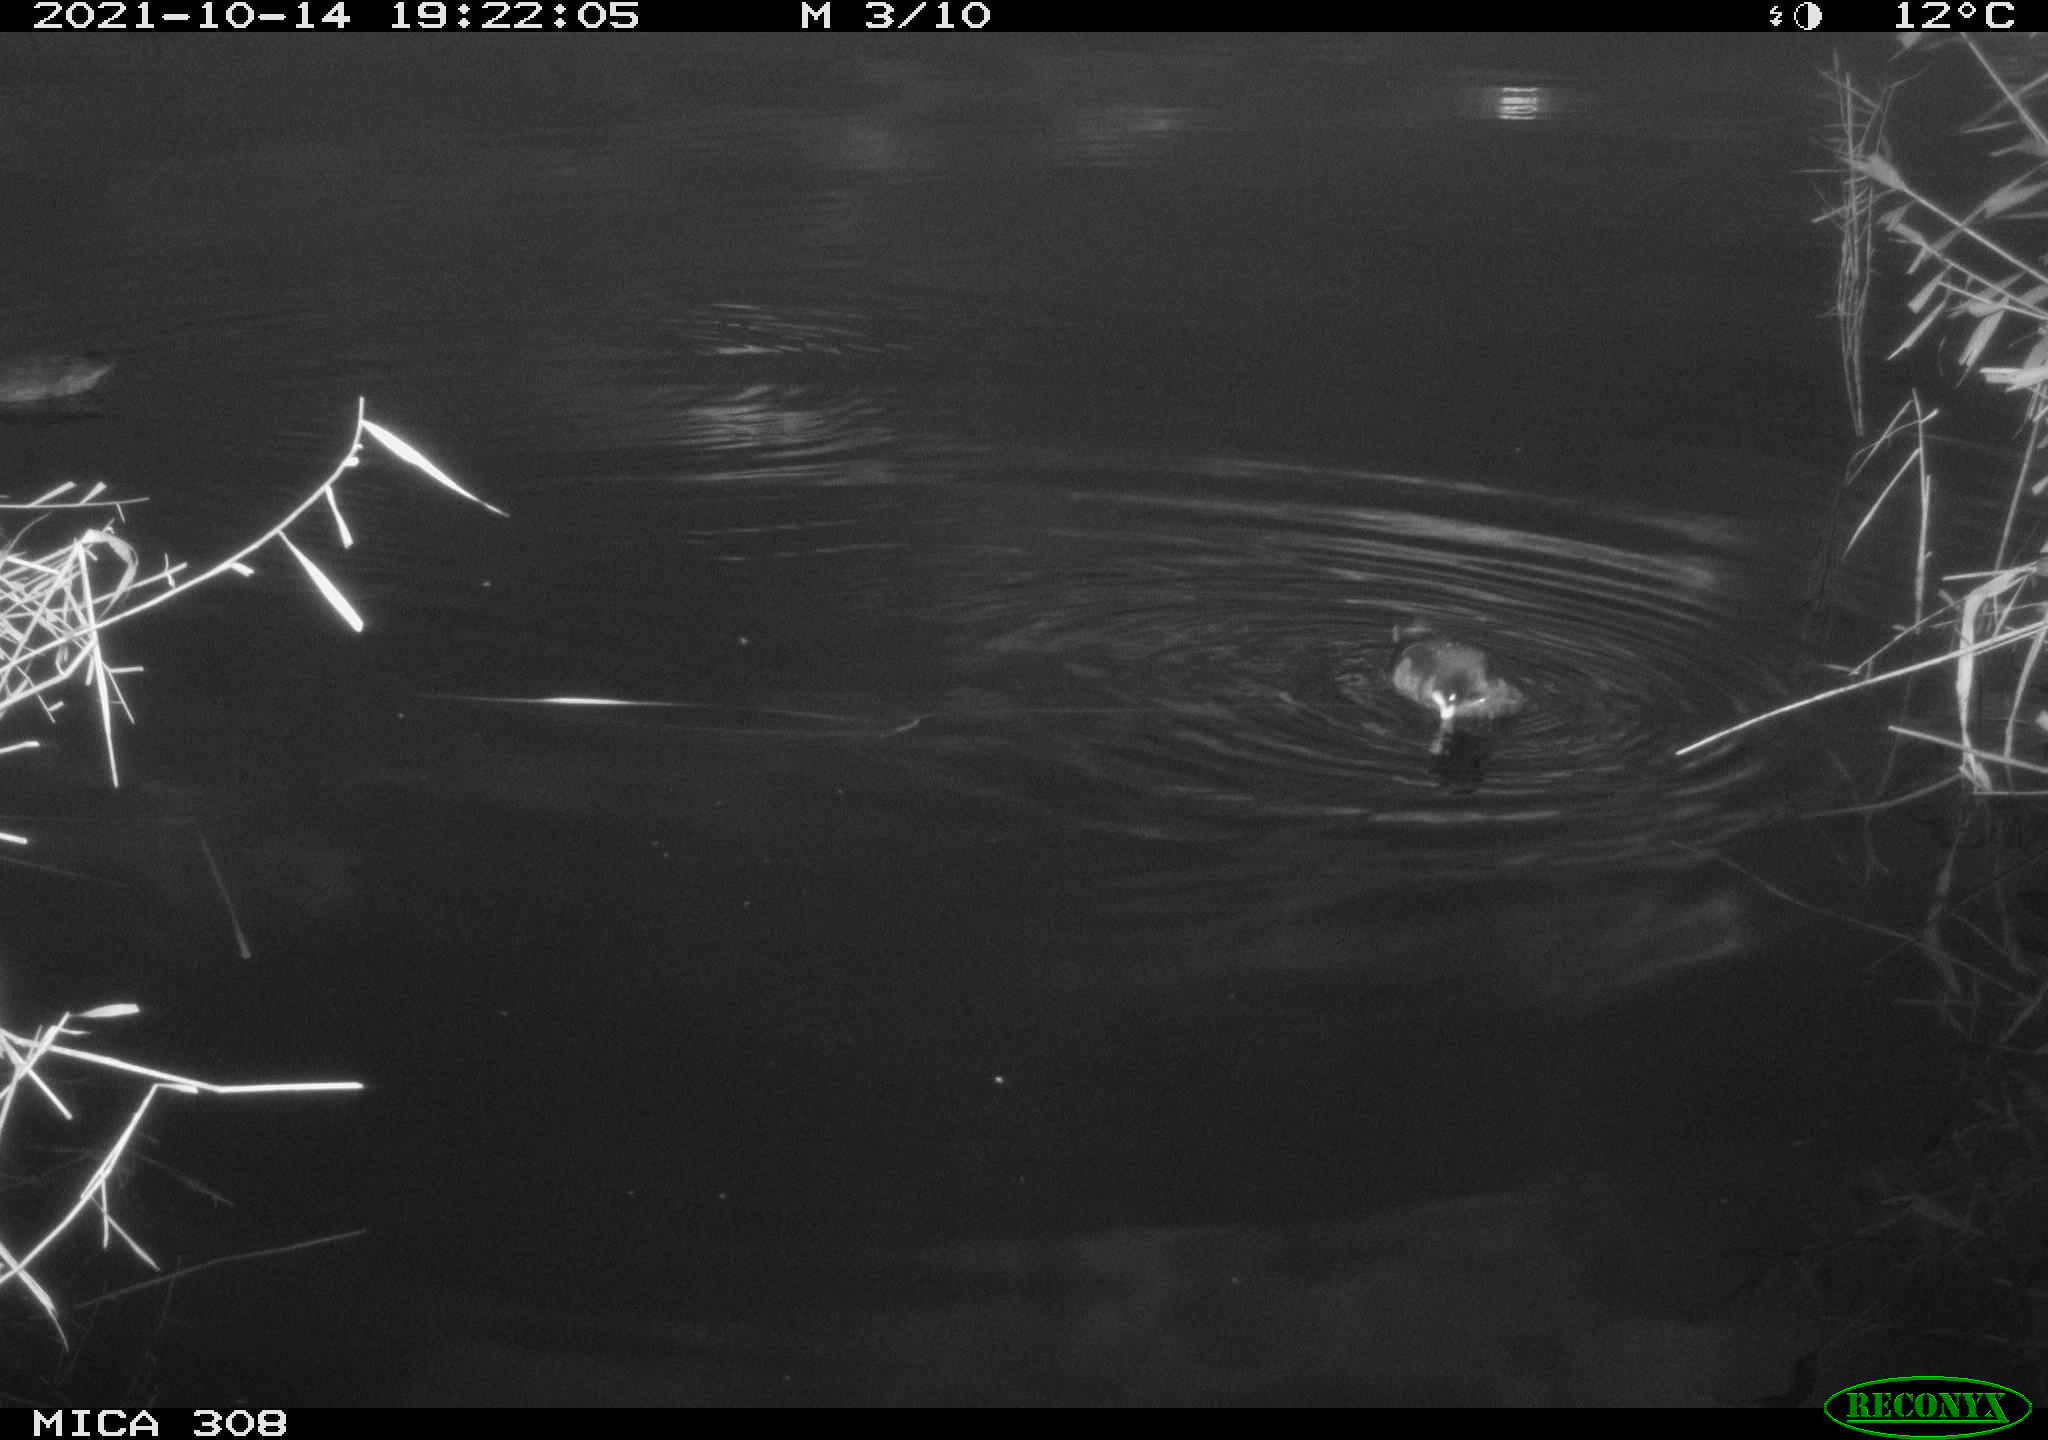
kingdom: Animalia
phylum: Chordata
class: Aves
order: Gruiformes
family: Rallidae
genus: Fulica
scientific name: Fulica atra
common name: Eurasian coot
